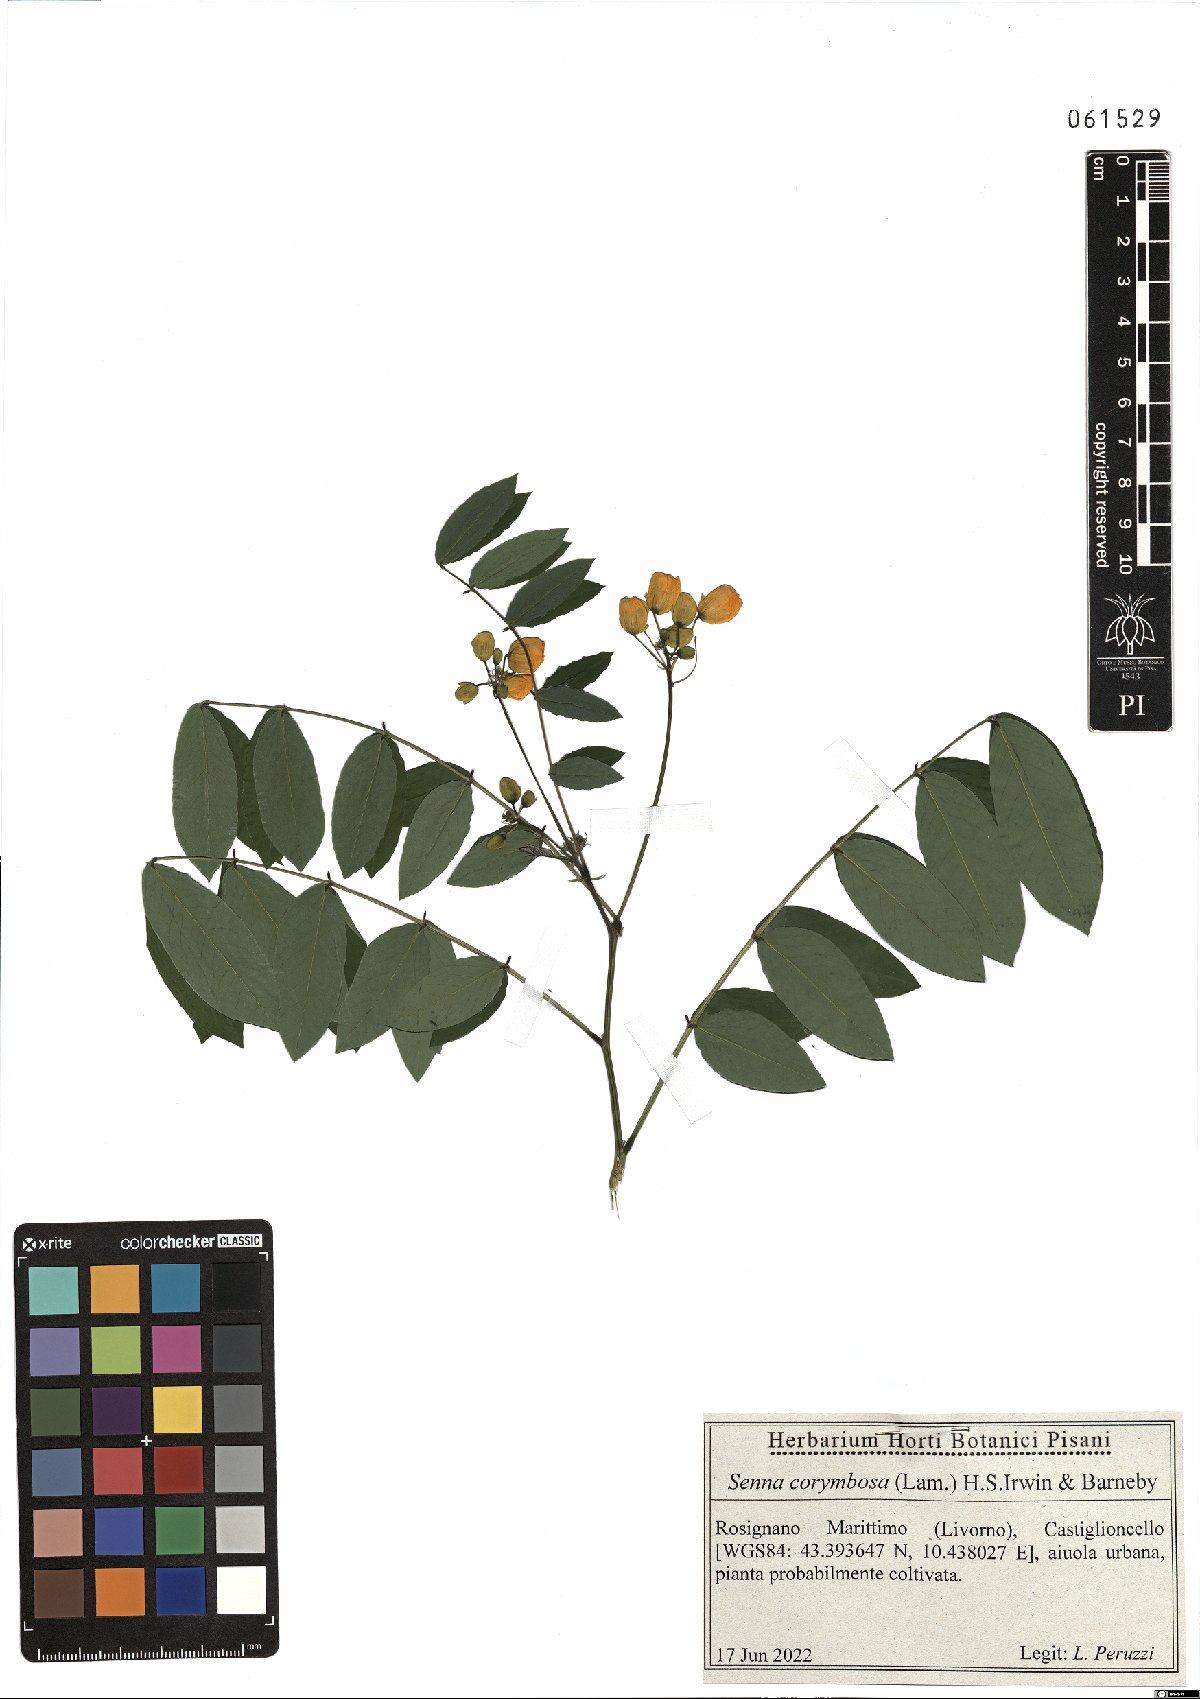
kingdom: Plantae
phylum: Tracheophyta
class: Magnoliopsida
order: Fabales
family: Fabaceae
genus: Senna
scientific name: Senna corymbosa
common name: Argentine senna
